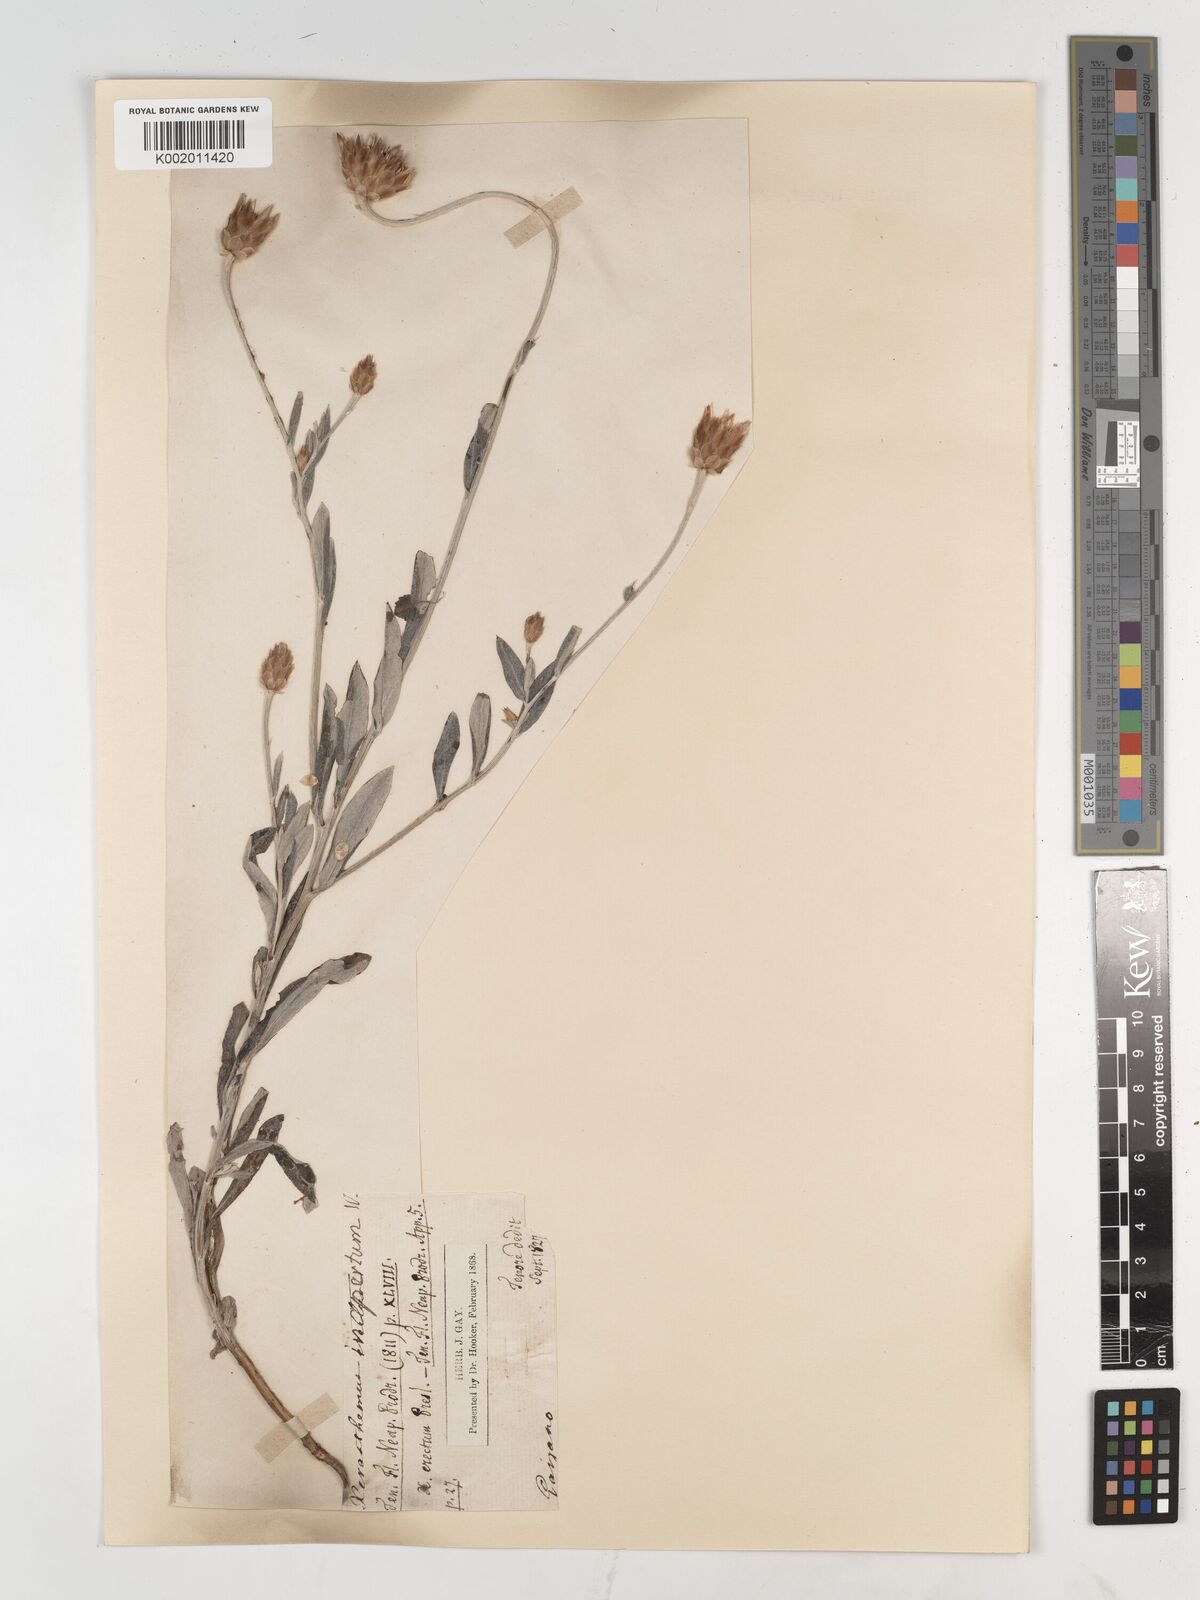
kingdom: Plantae
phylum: Tracheophyta
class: Magnoliopsida
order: Asterales
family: Asteraceae
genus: Xeranthemum
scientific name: Xeranthemum inapertum
